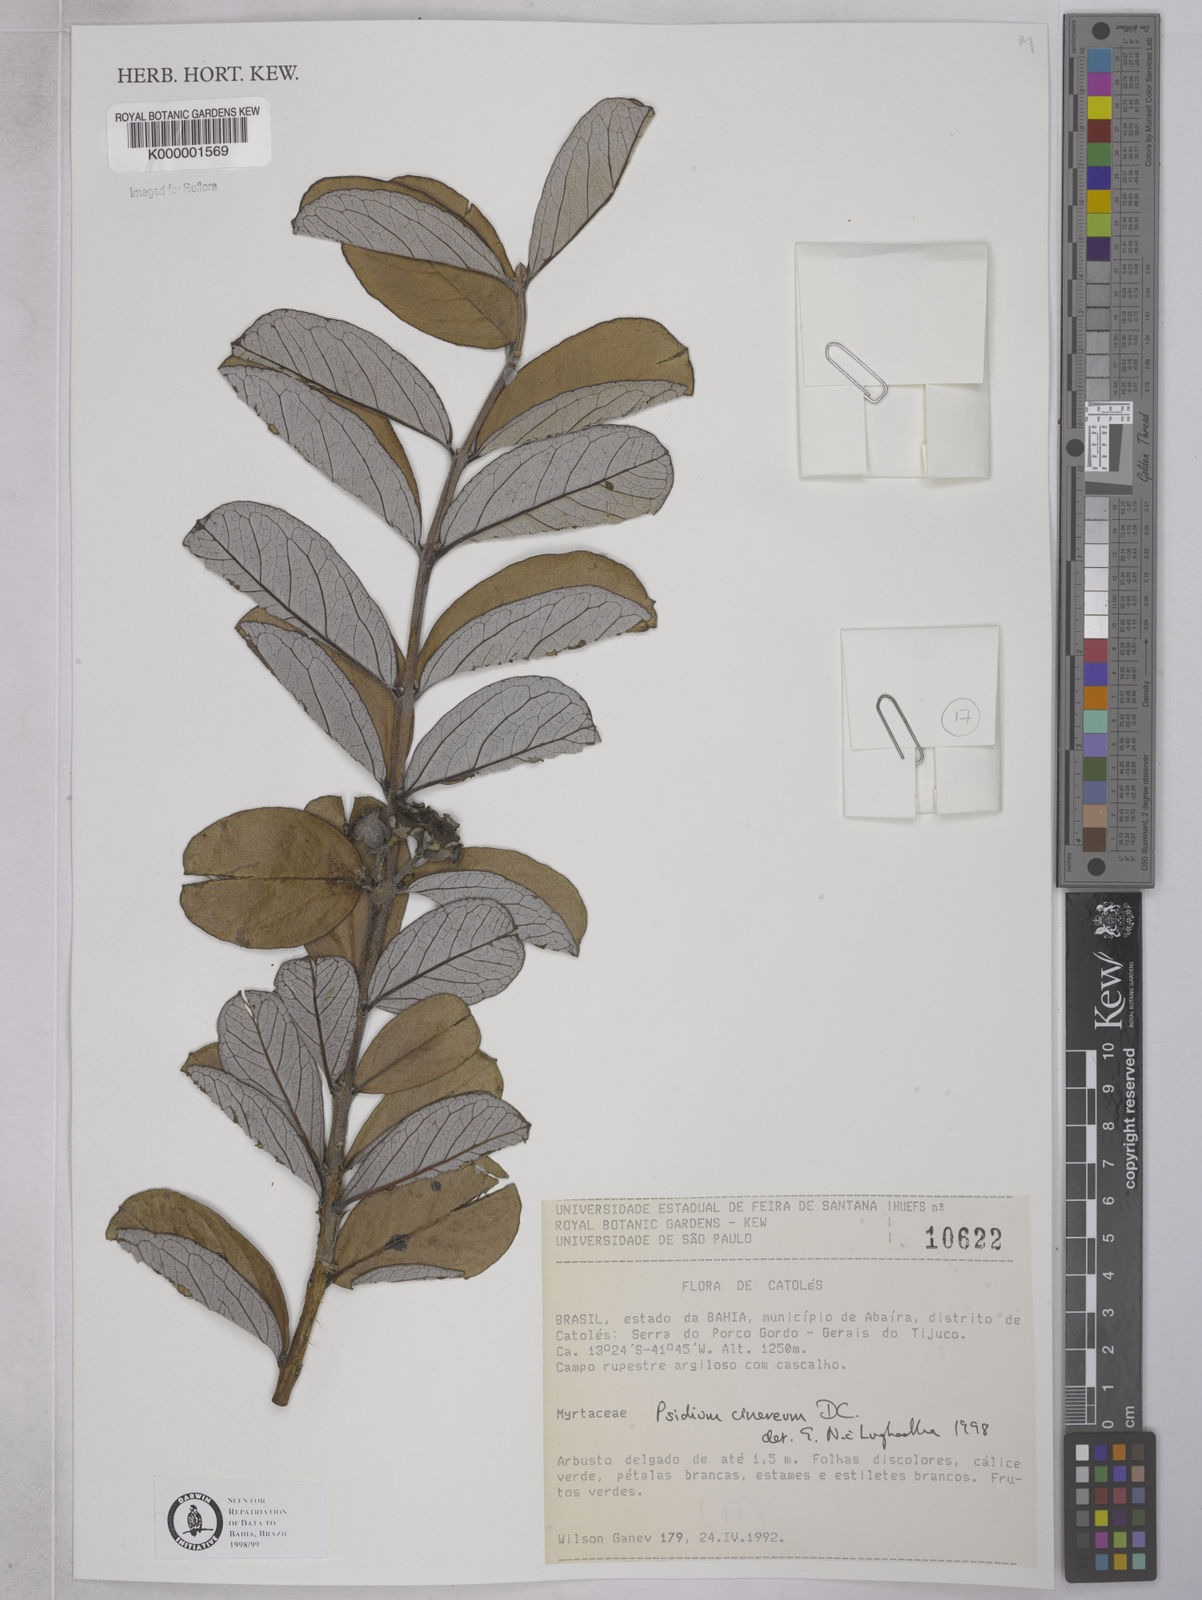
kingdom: Plantae
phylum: Tracheophyta
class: Magnoliopsida
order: Myrtales
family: Myrtaceae
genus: Psidium
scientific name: Psidium grandifolium
